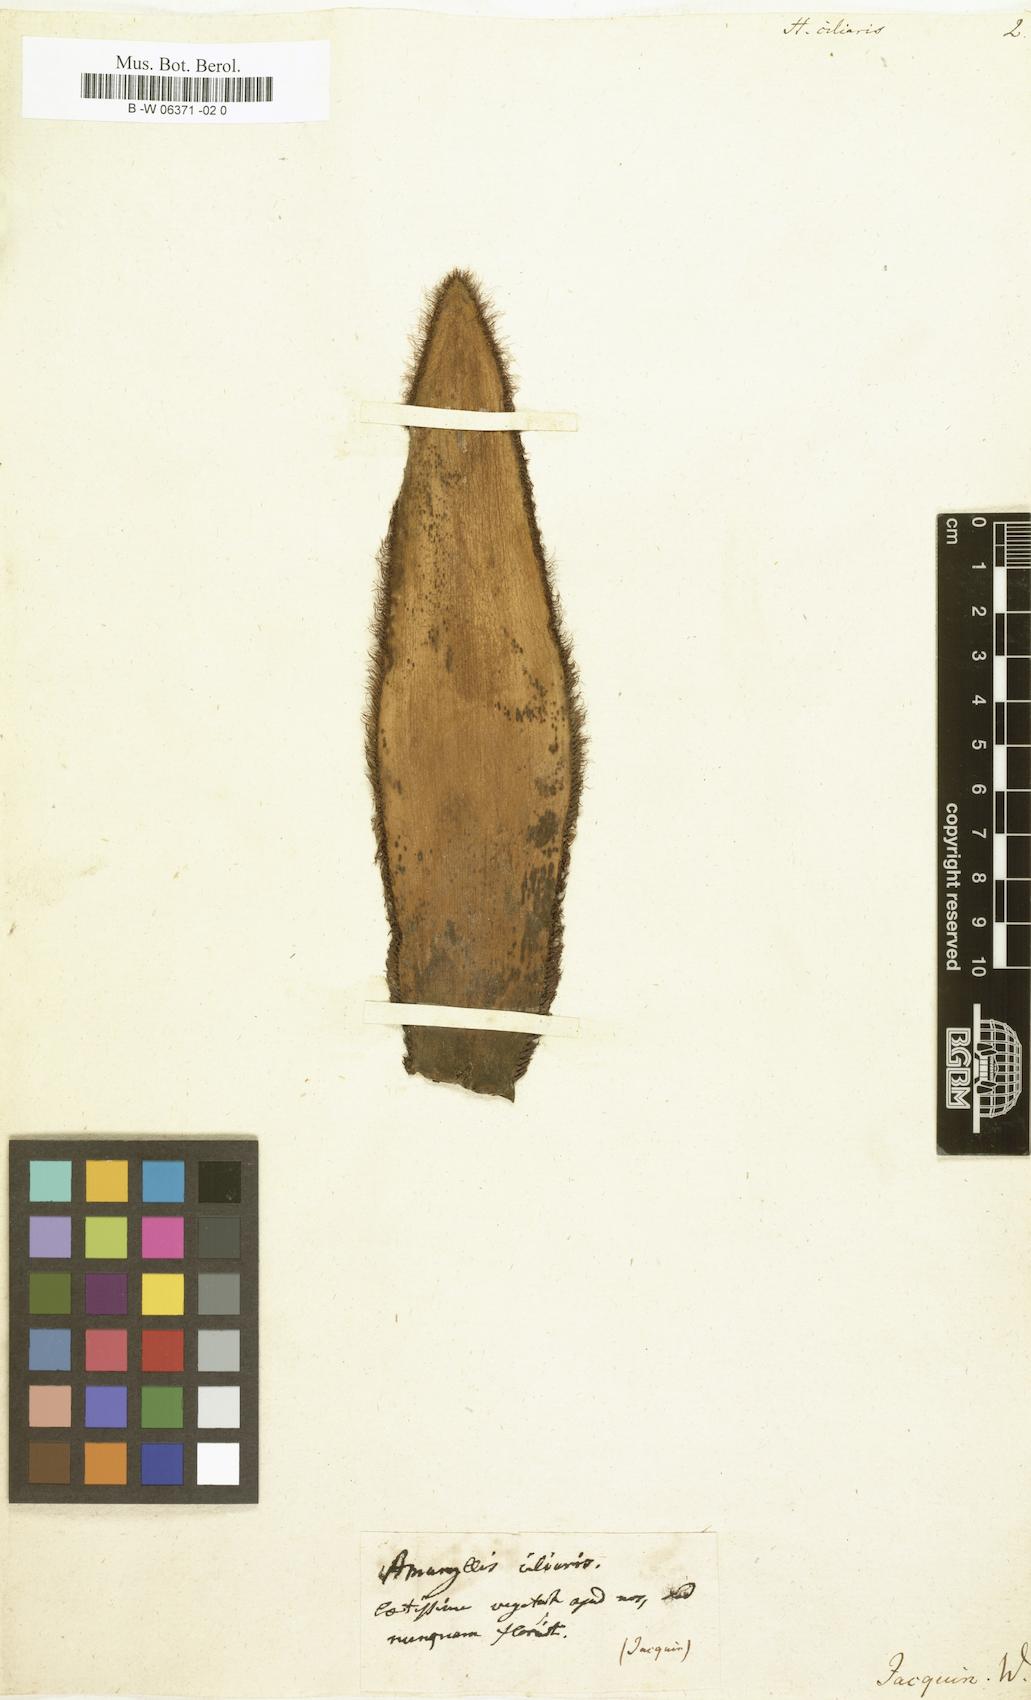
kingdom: Plantae
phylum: Tracheophyta
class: Liliopsida
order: Asparagales
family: Amaryllidaceae
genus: Boophone
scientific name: Boophone disticha
